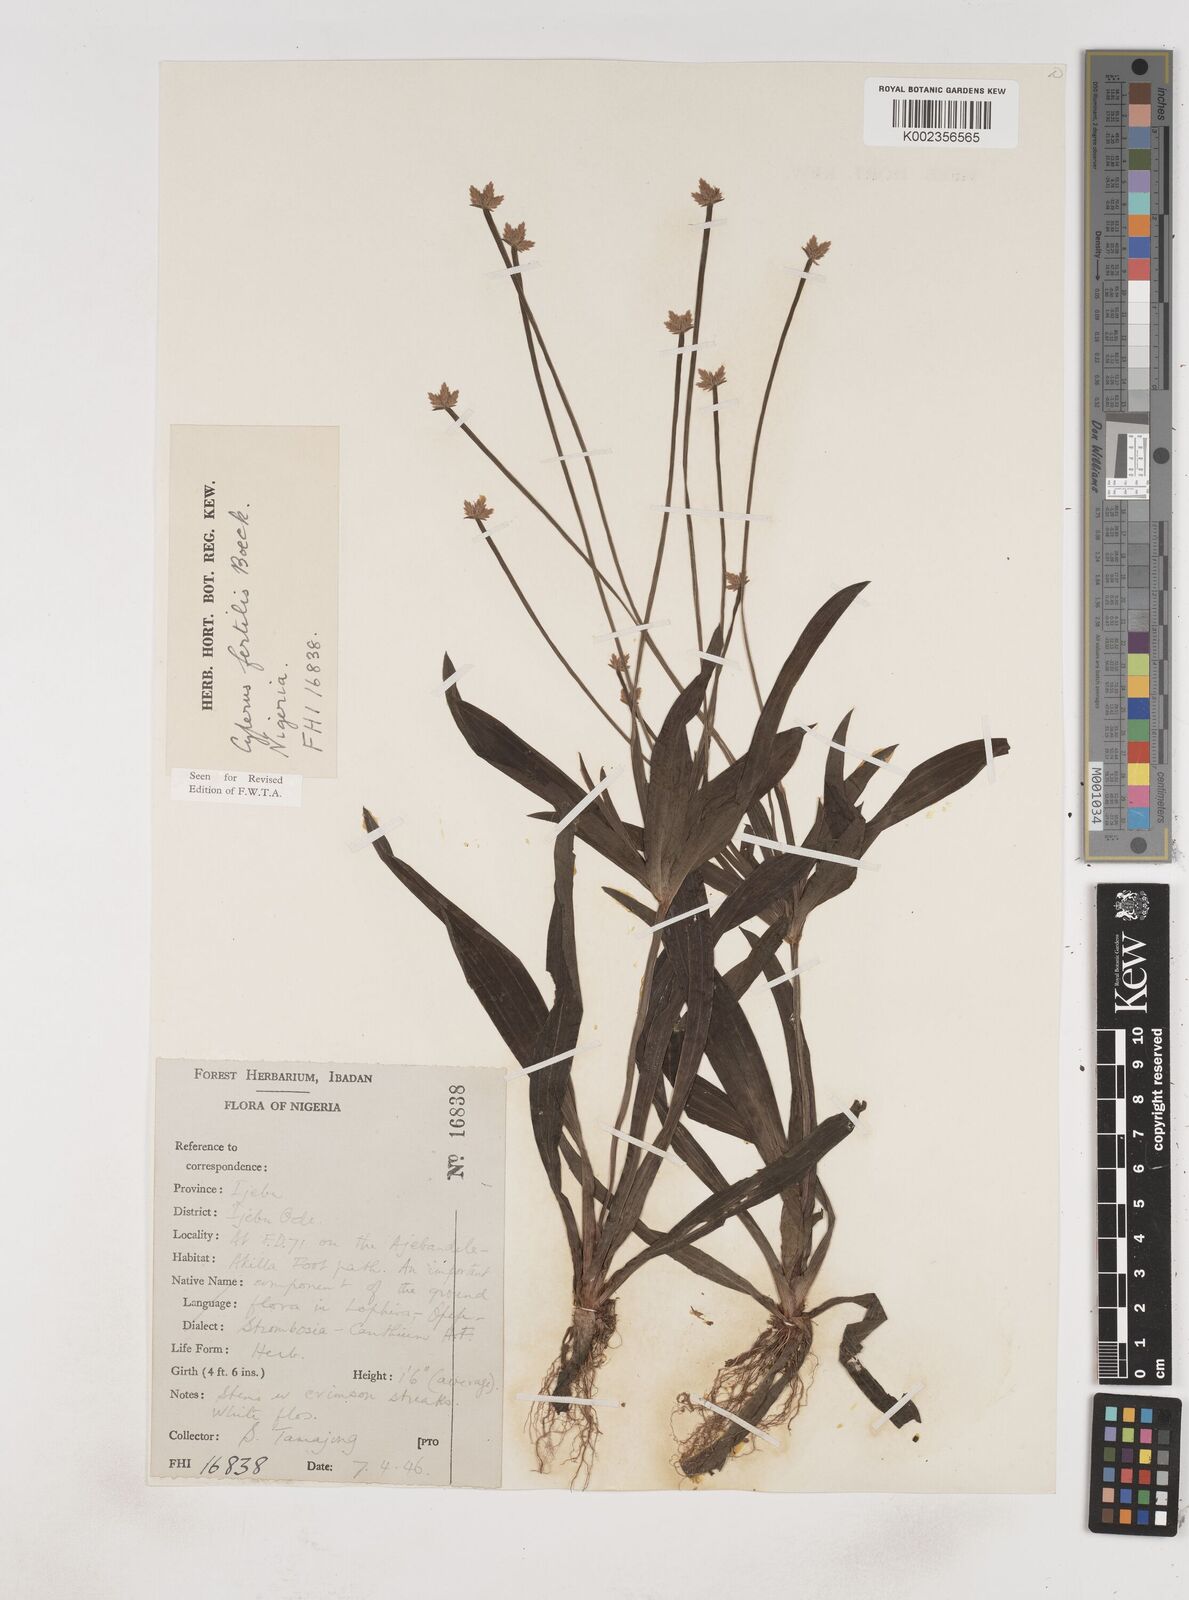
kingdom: Plantae
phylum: Tracheophyta
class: Liliopsida
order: Poales
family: Cyperaceae
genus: Cyperus
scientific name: Cyperus fertilis
